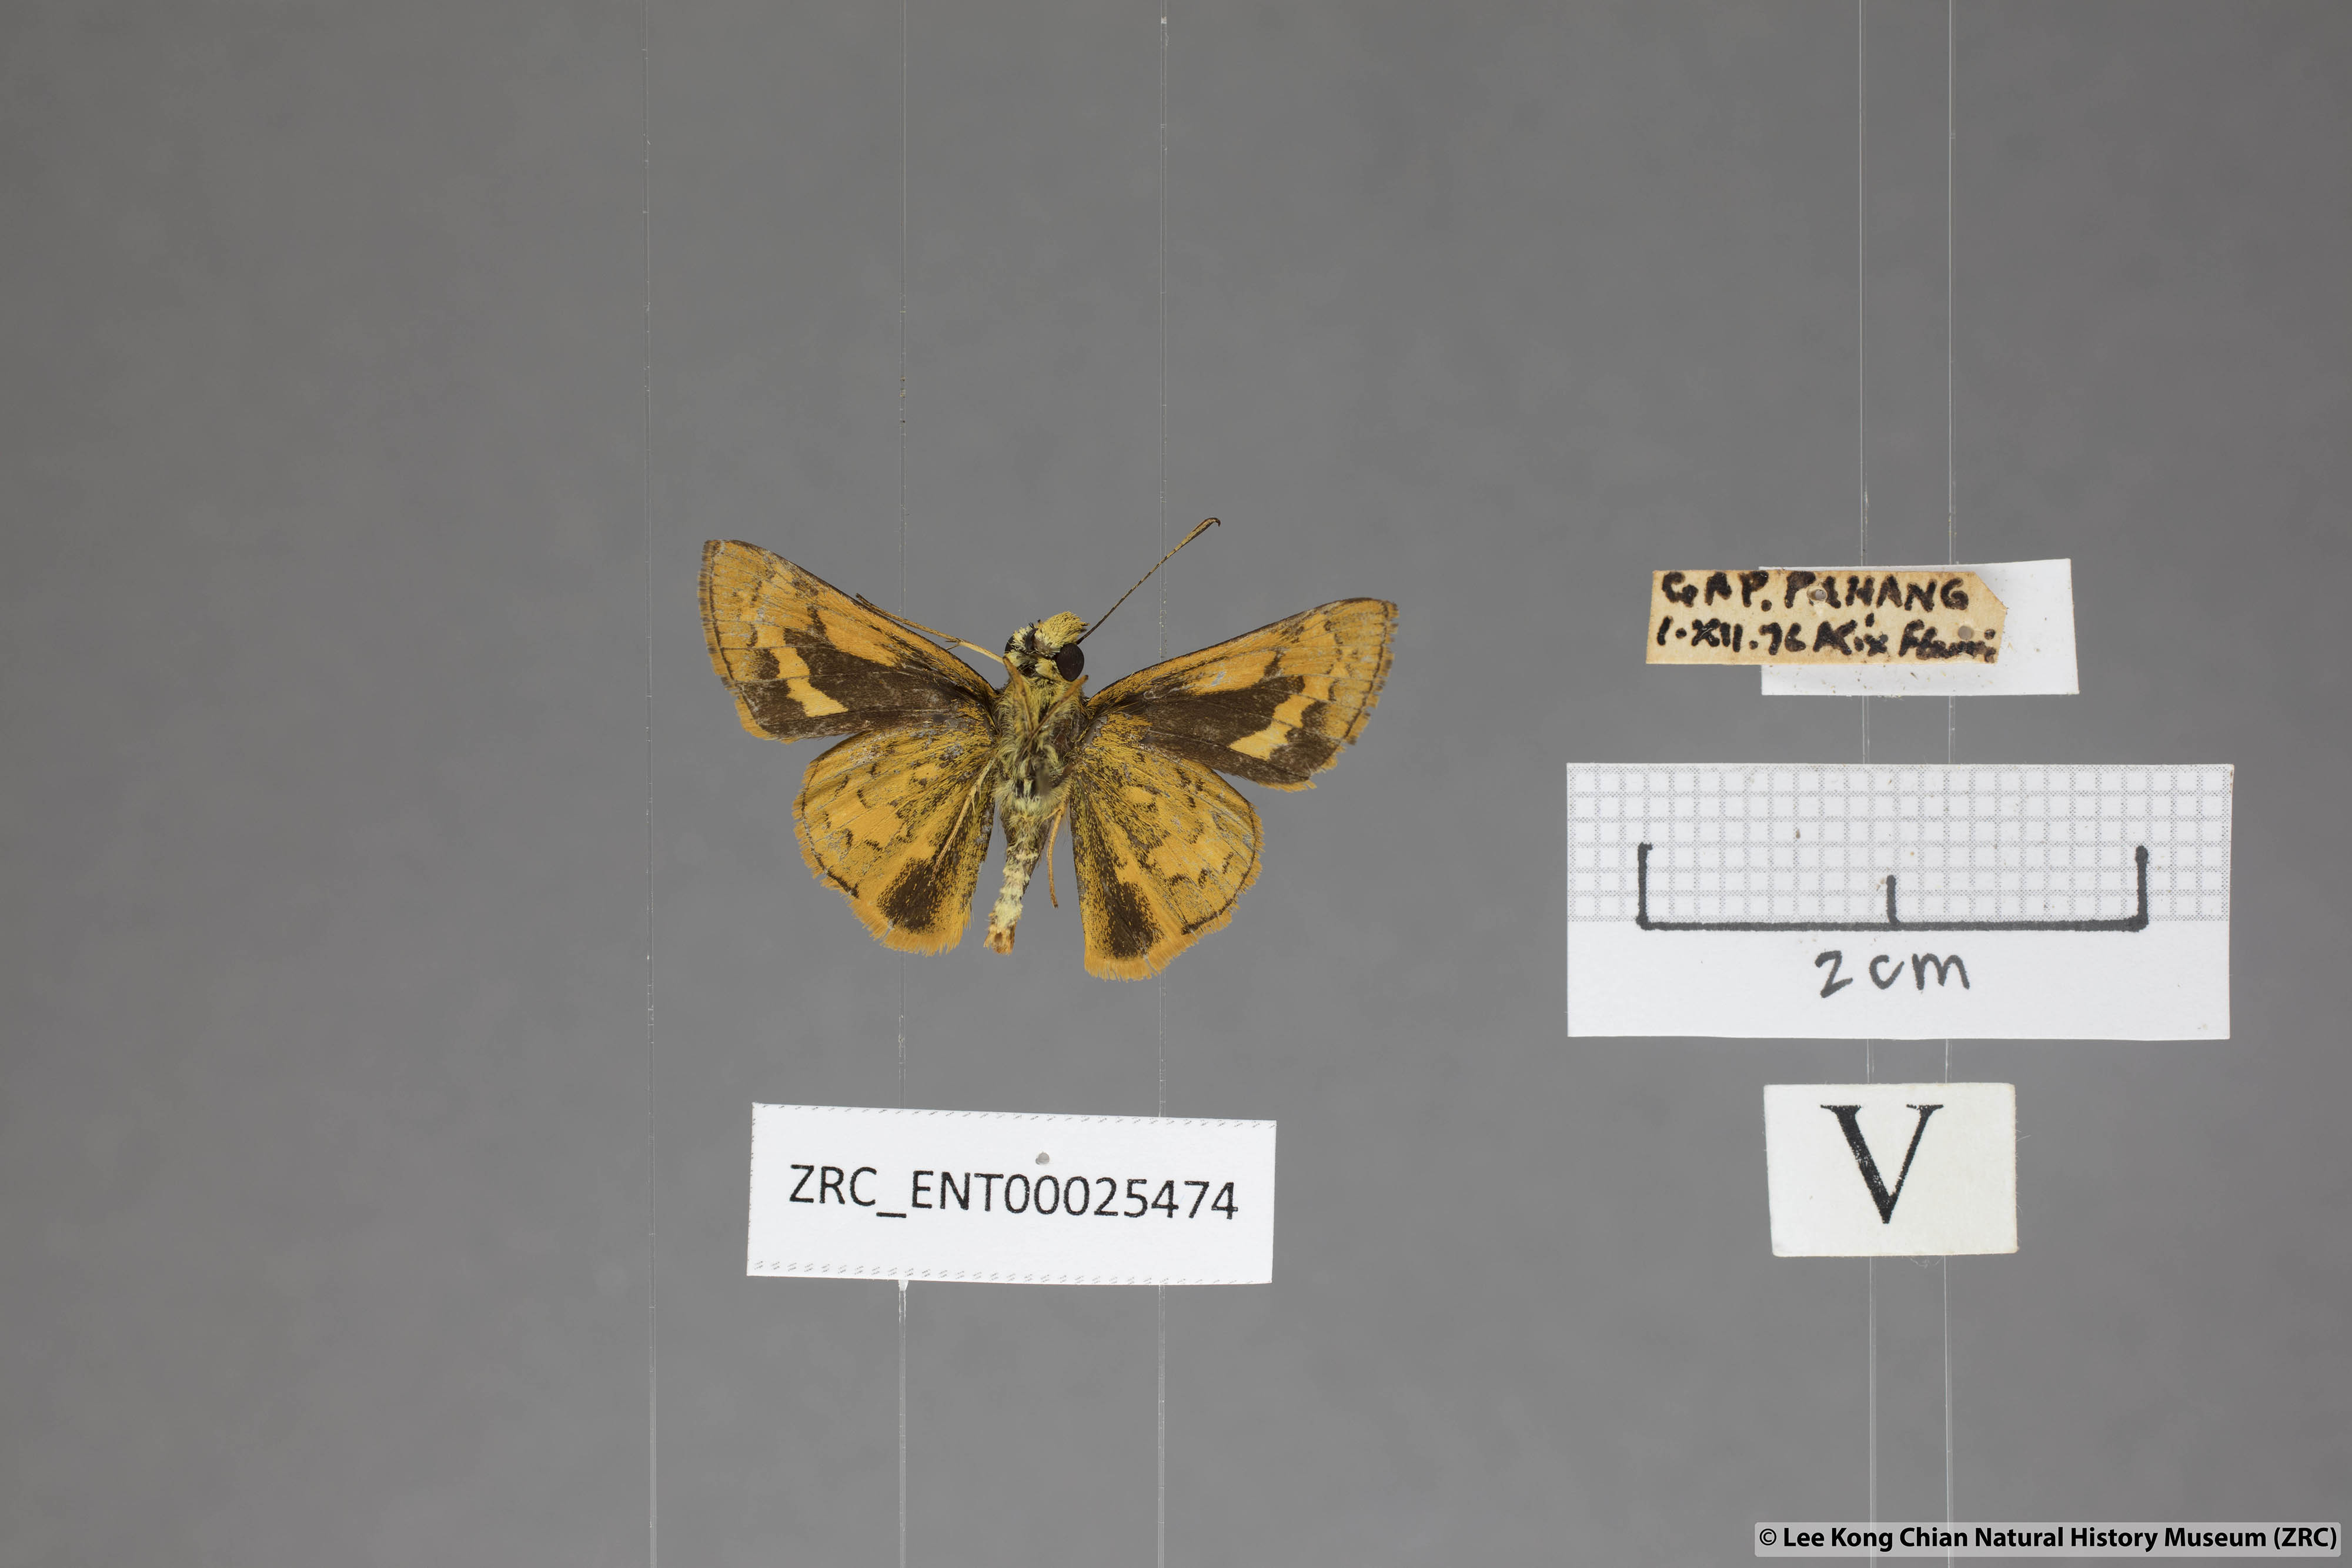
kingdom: Animalia
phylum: Arthropoda
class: Insecta
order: Lepidoptera
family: Hesperiidae
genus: Potanthus
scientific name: Potanthus rectifasciata
